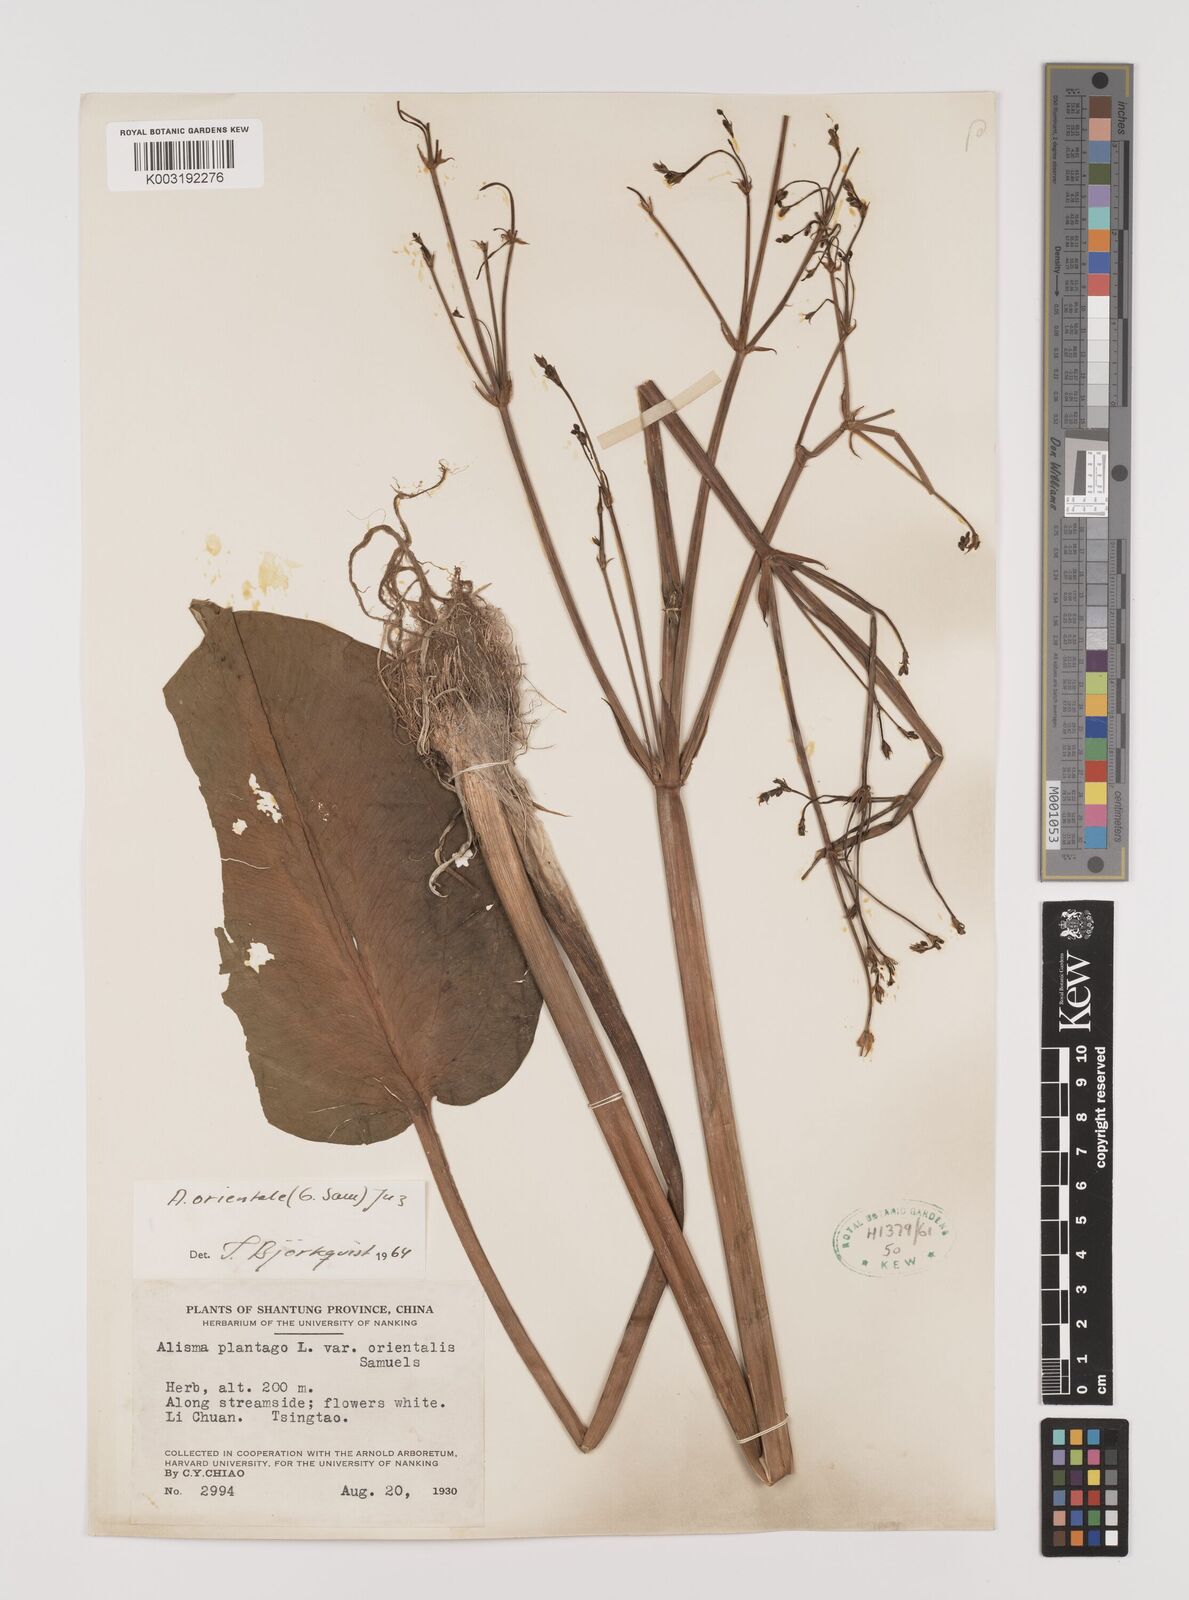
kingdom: Plantae
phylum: Tracheophyta
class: Liliopsida
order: Alismatales
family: Alismataceae
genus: Alisma
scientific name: Alisma plantago-aquatica
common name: Water-plantain
